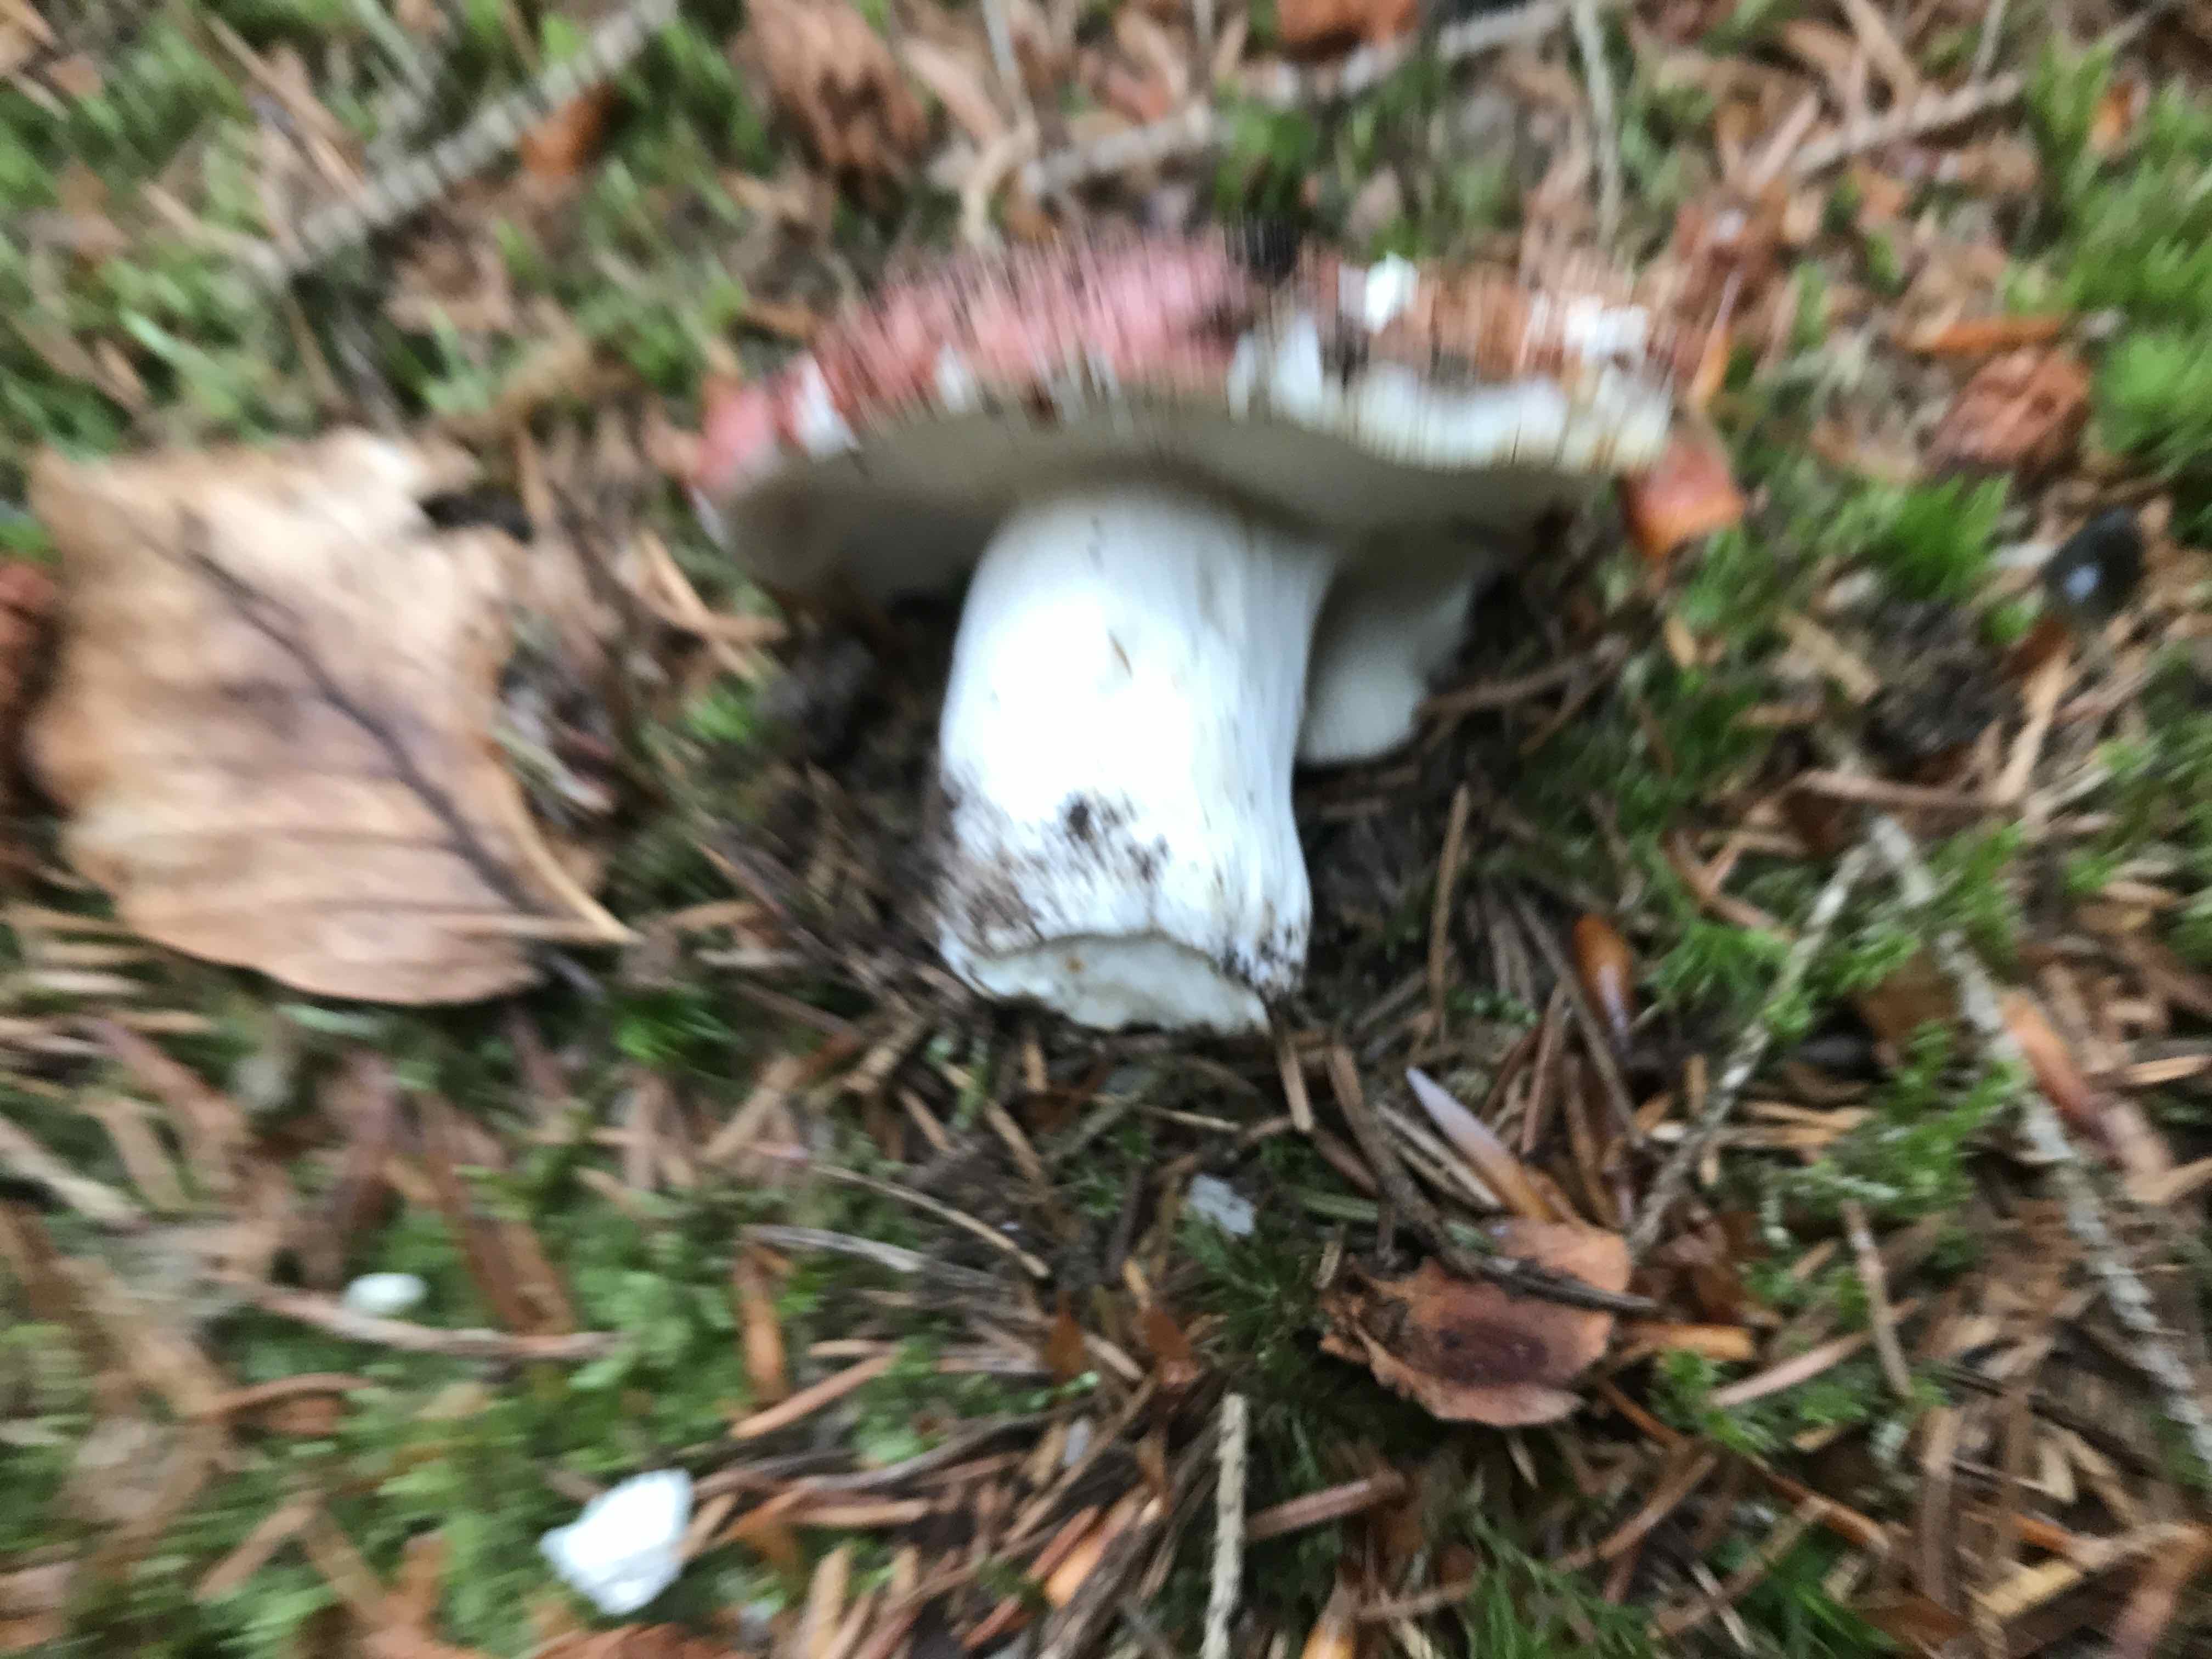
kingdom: Fungi
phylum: Basidiomycota
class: Agaricomycetes
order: Russulales
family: Russulaceae
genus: Russula
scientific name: Russula vesca
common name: spiselig skørhat
